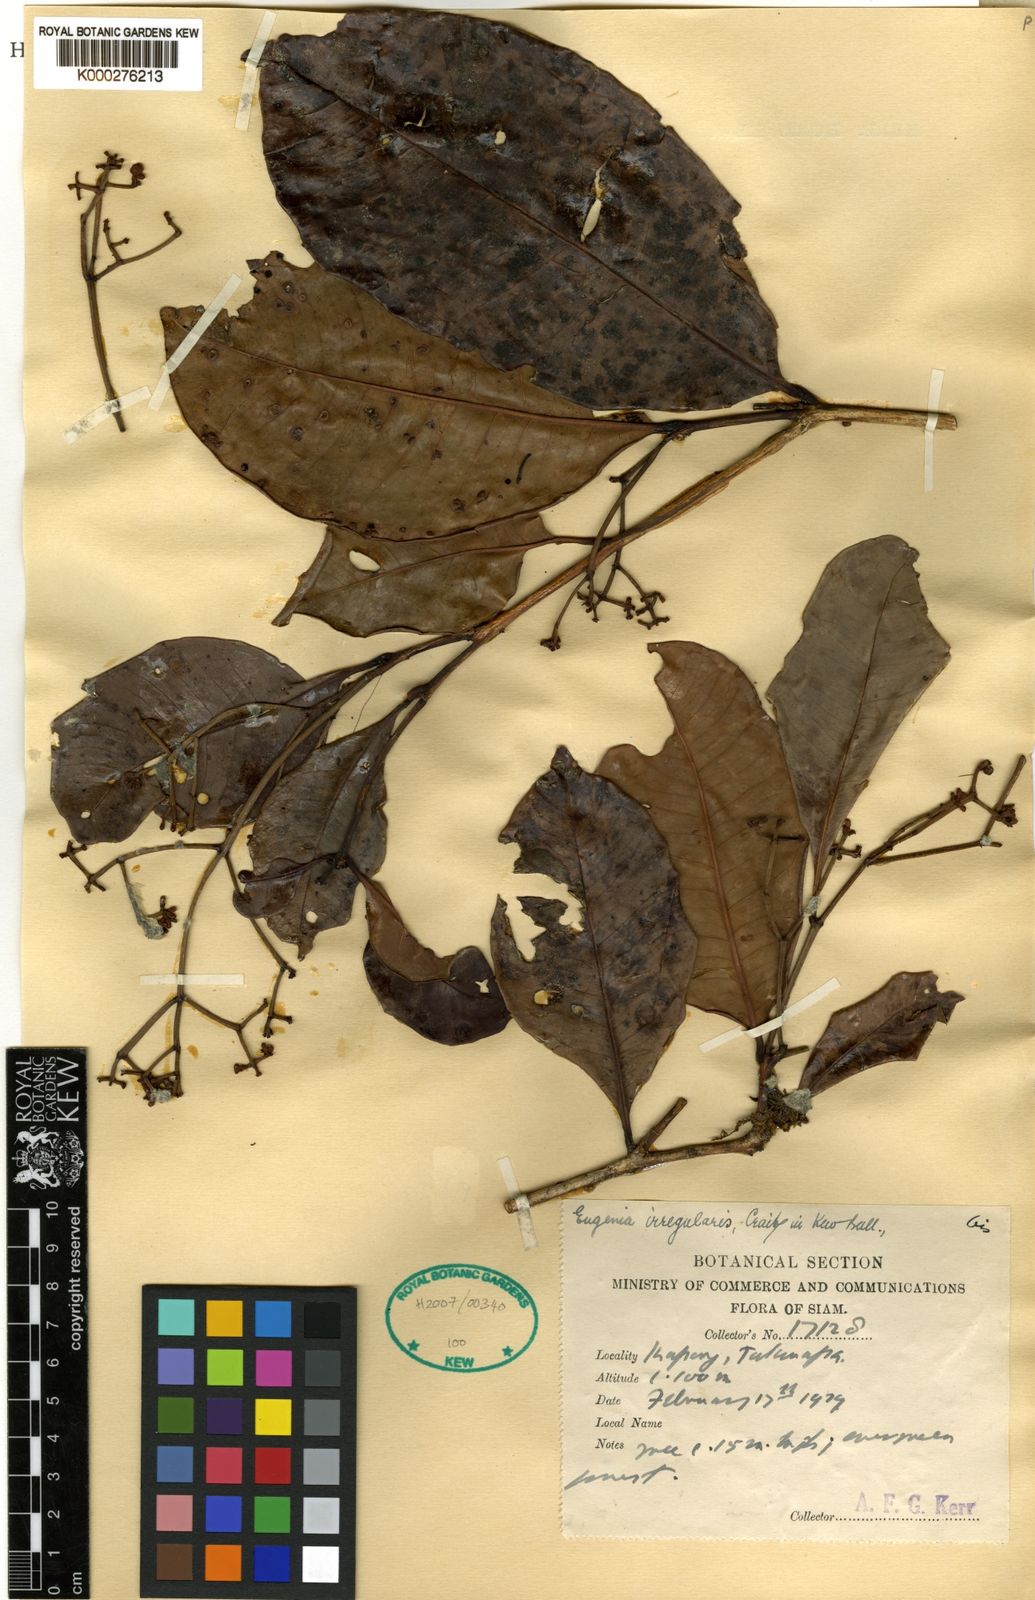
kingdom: Plantae
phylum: Tracheophyta
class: Magnoliopsida
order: Myrtales
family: Myrtaceae
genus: Syzygium
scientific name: Syzygium borneense
